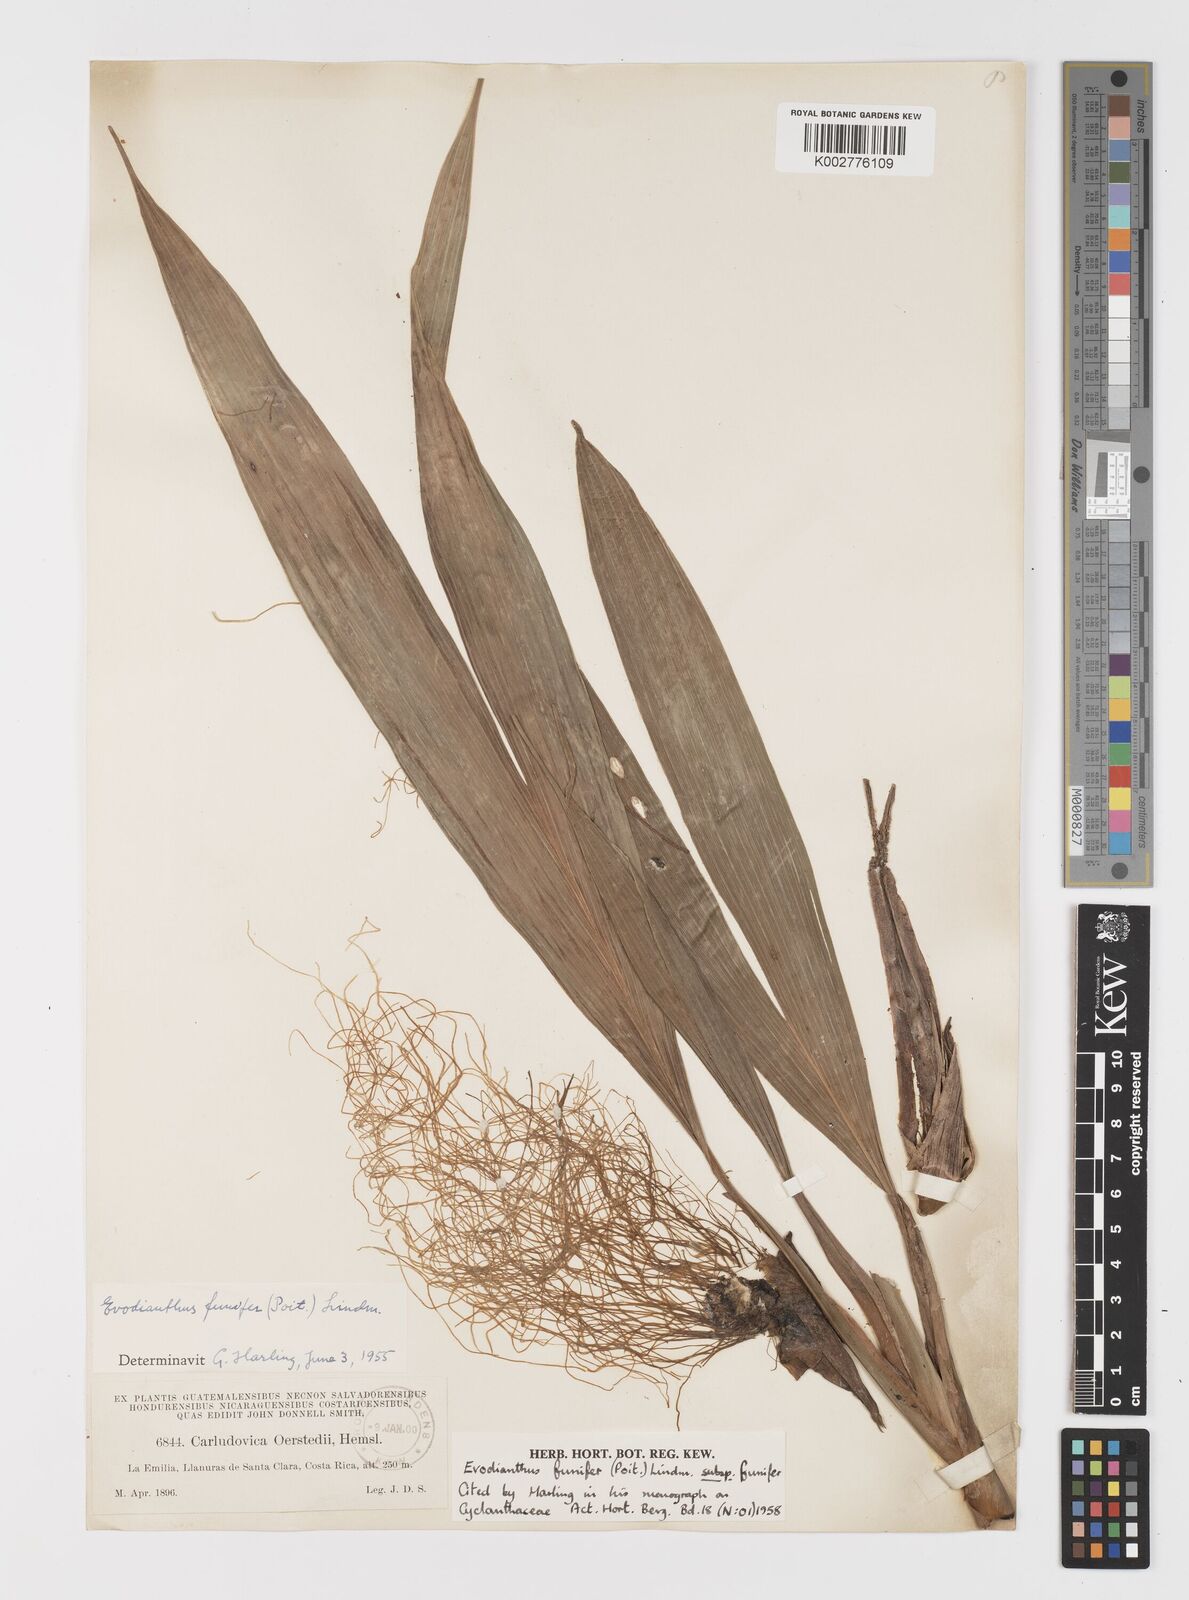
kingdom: Plantae
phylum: Tracheophyta
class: Liliopsida
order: Pandanales
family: Cyclanthaceae
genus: Evodianthus
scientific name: Evodianthus funifer
